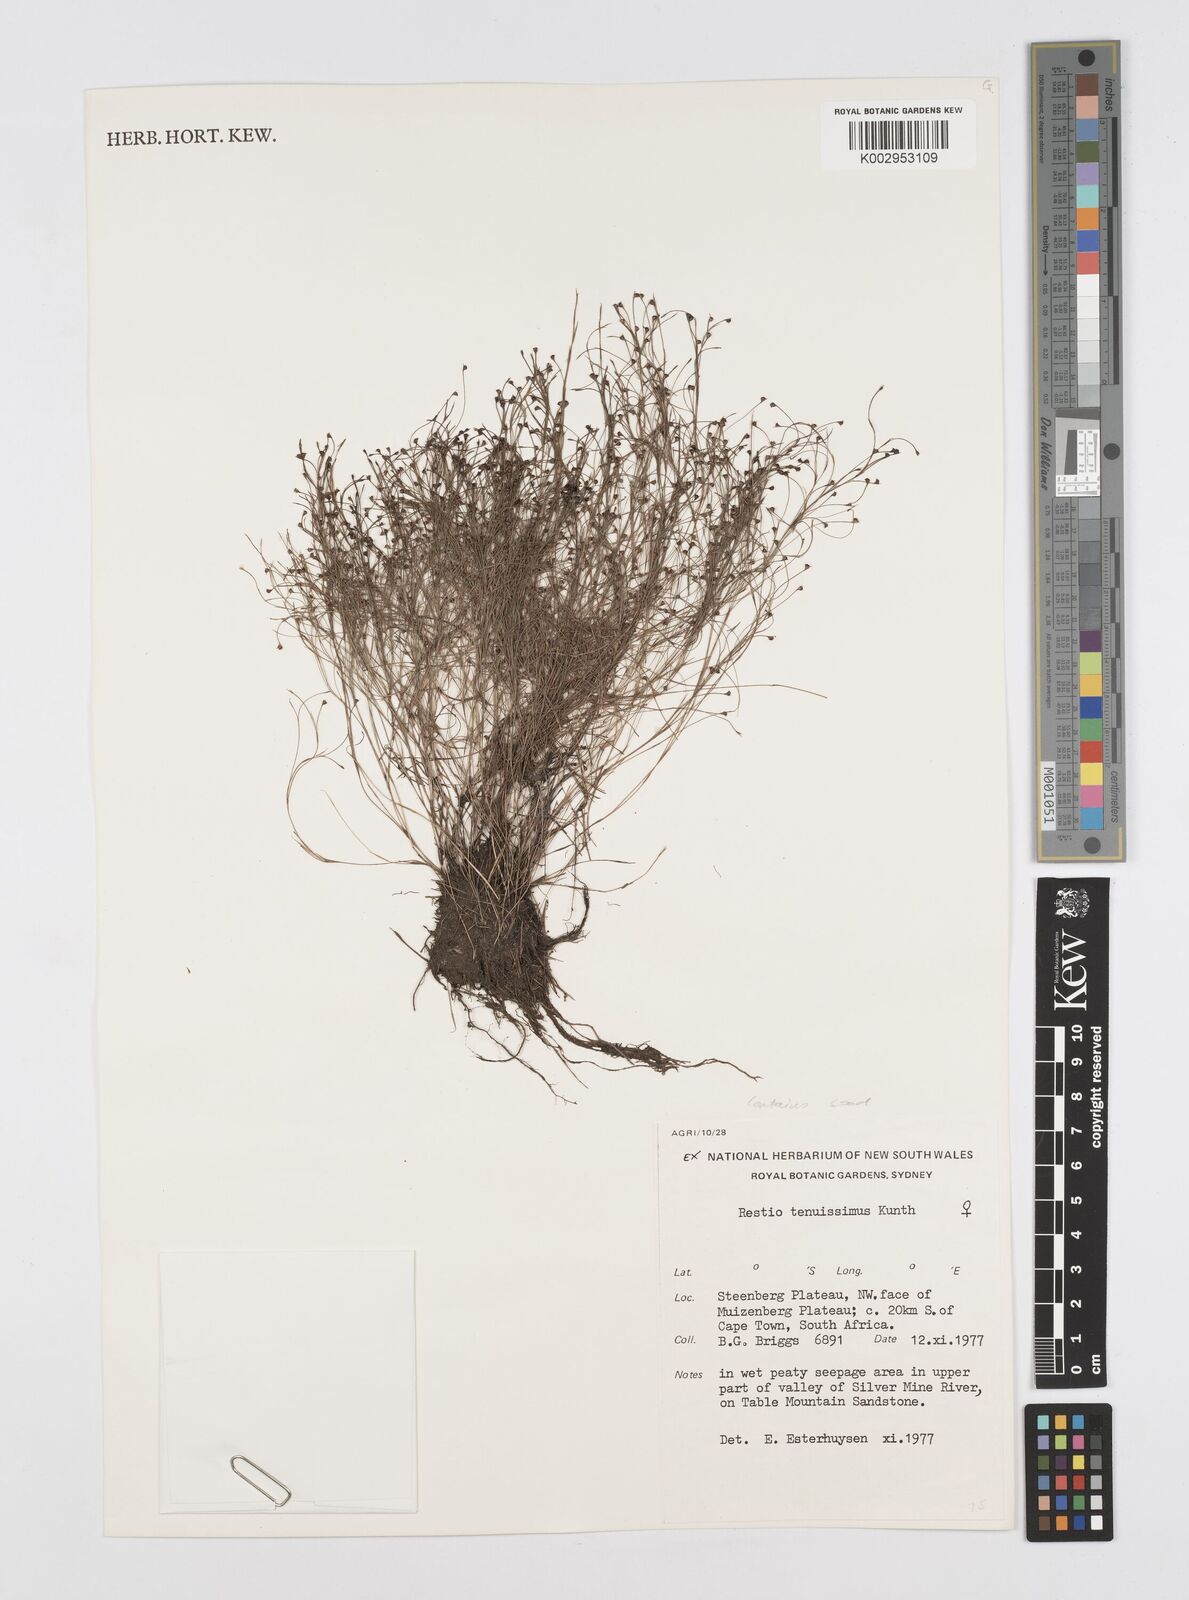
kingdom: Plantae
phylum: Tracheophyta
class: Liliopsida
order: Poales
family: Restionaceae
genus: Restio
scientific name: Restio tenuissimus
